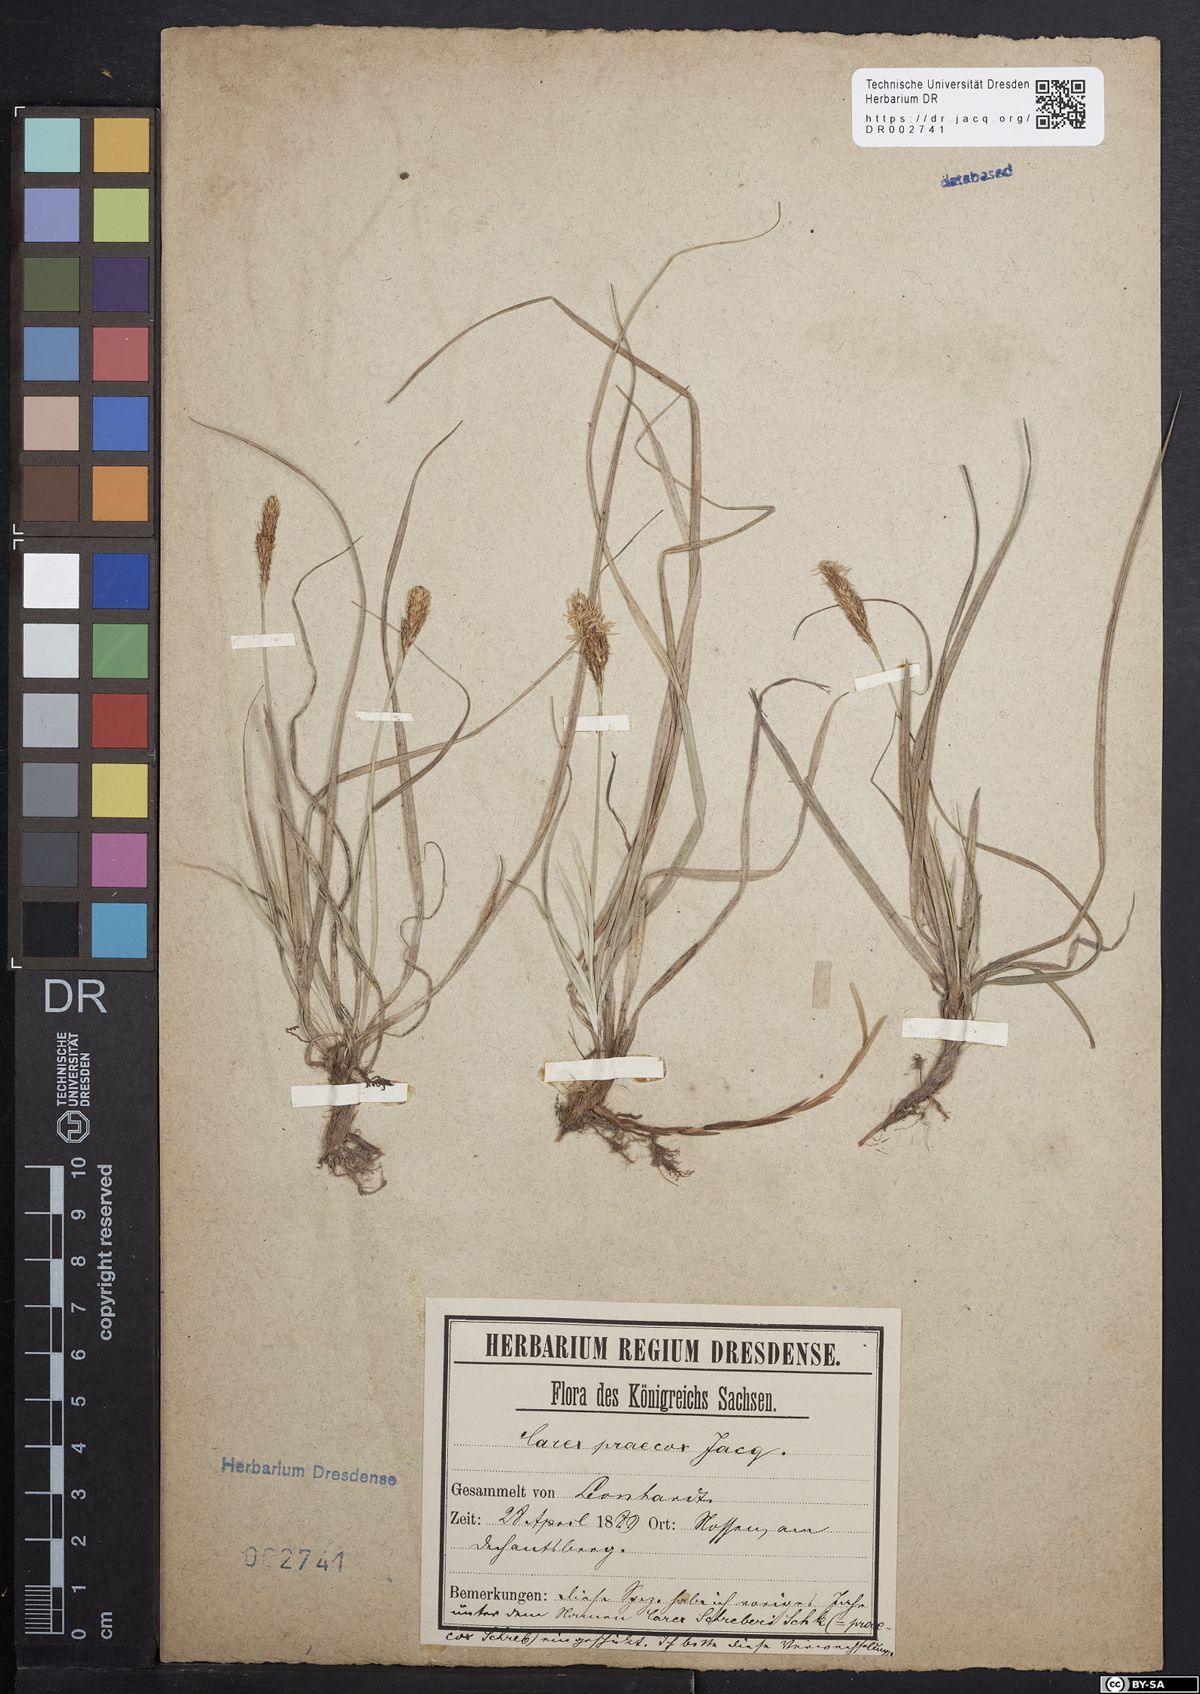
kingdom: Plantae
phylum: Tracheophyta
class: Liliopsida
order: Poales
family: Cyperaceae
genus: Carex
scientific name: Carex caryophyllea
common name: Spring sedge
